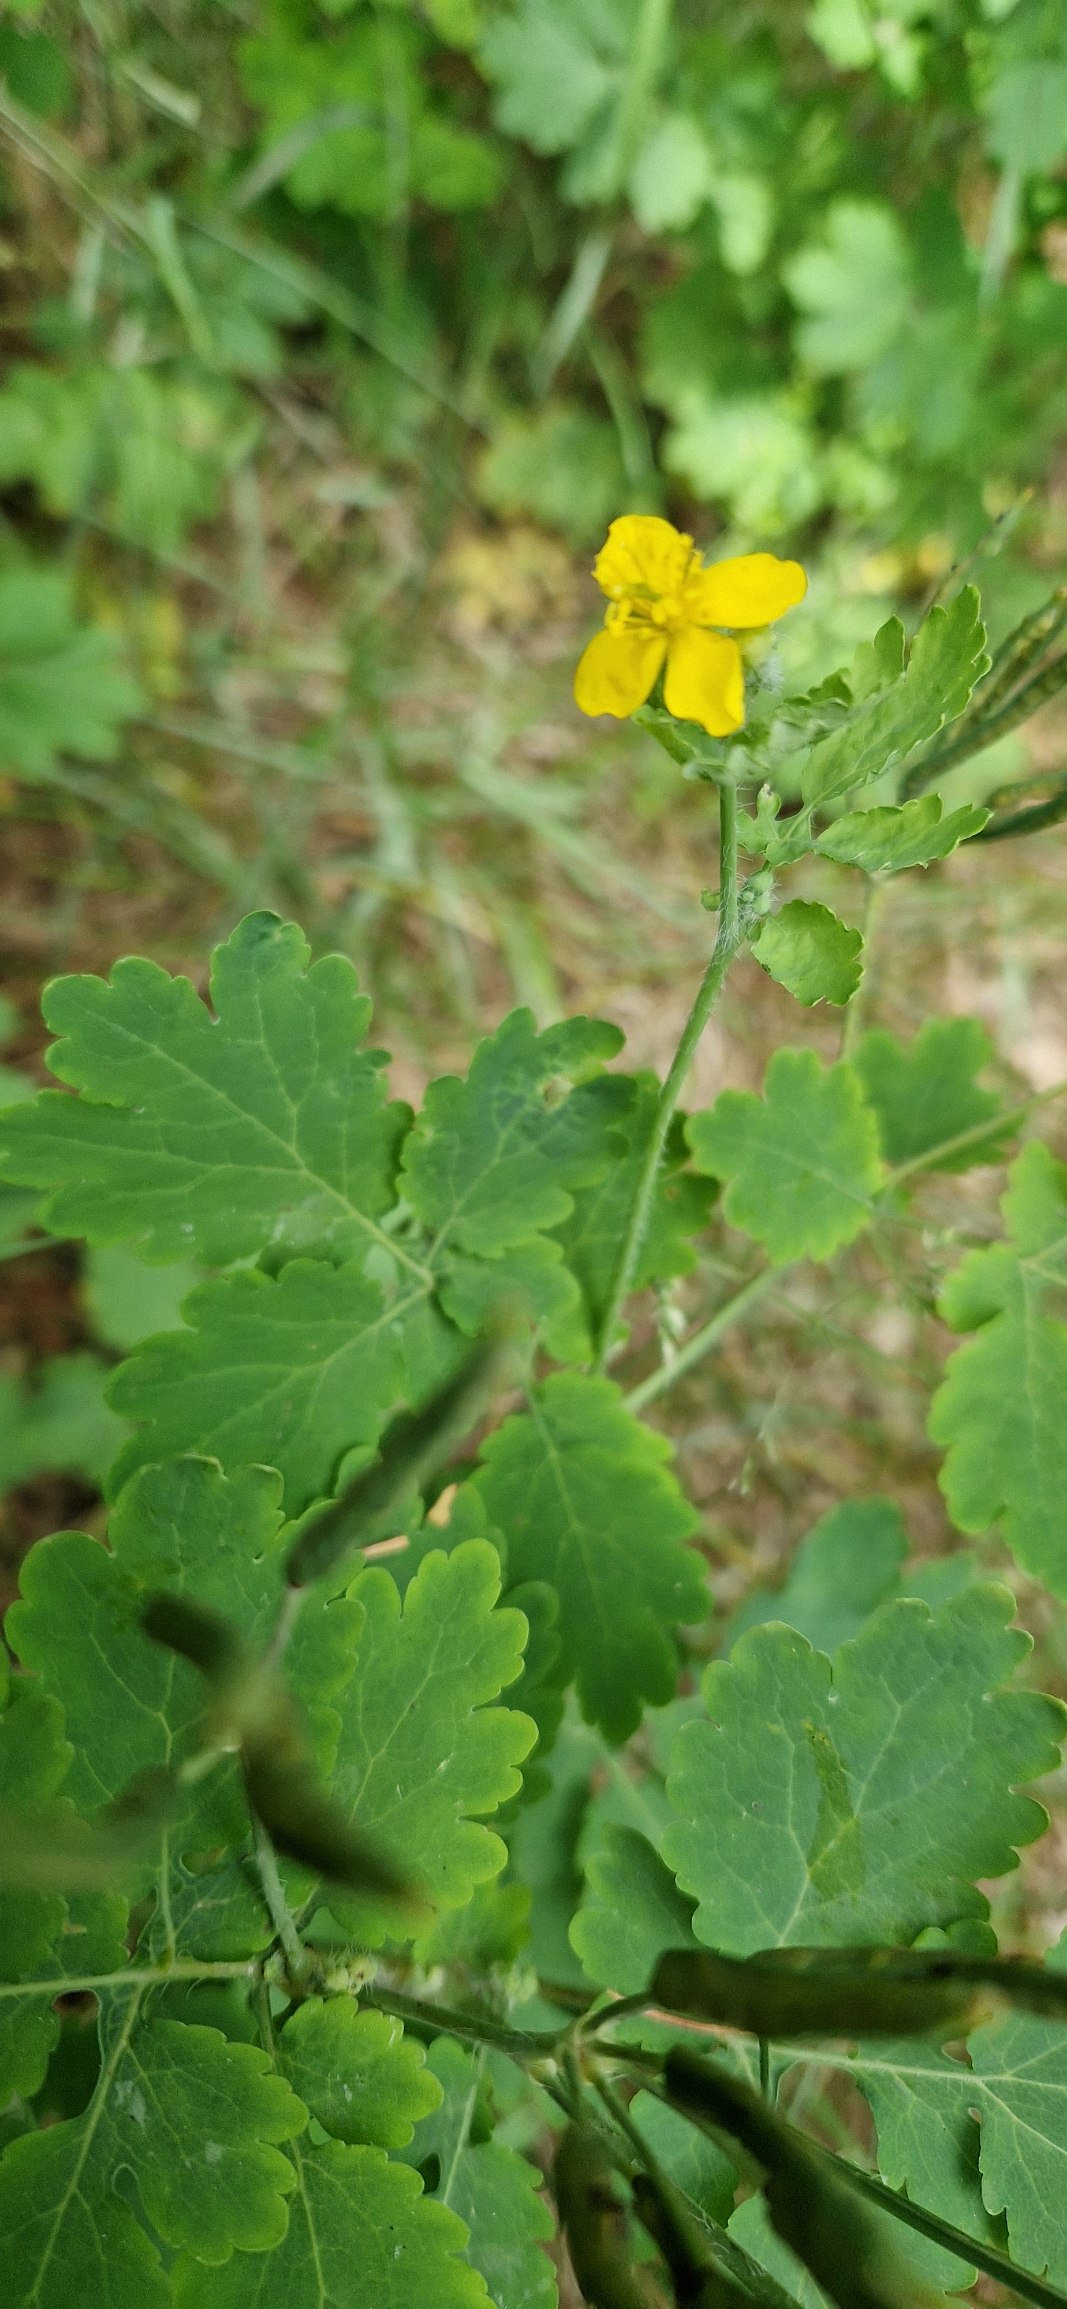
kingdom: Plantae
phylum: Tracheophyta
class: Magnoliopsida
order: Ranunculales
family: Papaveraceae
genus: Chelidonium
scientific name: Chelidonium majus
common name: Svaleurt
